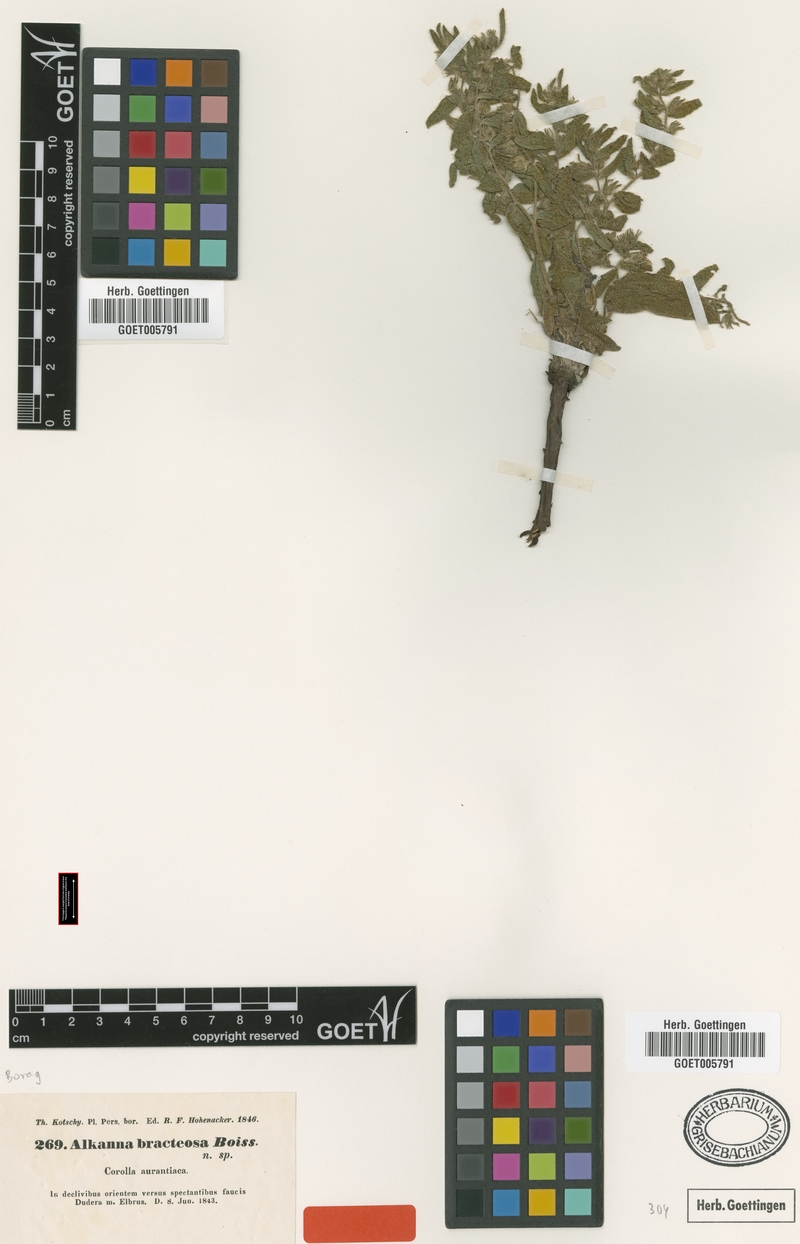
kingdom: Plantae
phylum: Tracheophyta
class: Magnoliopsida
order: Boraginales
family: Boraginaceae
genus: Alkanna
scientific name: Alkanna bracteosa
